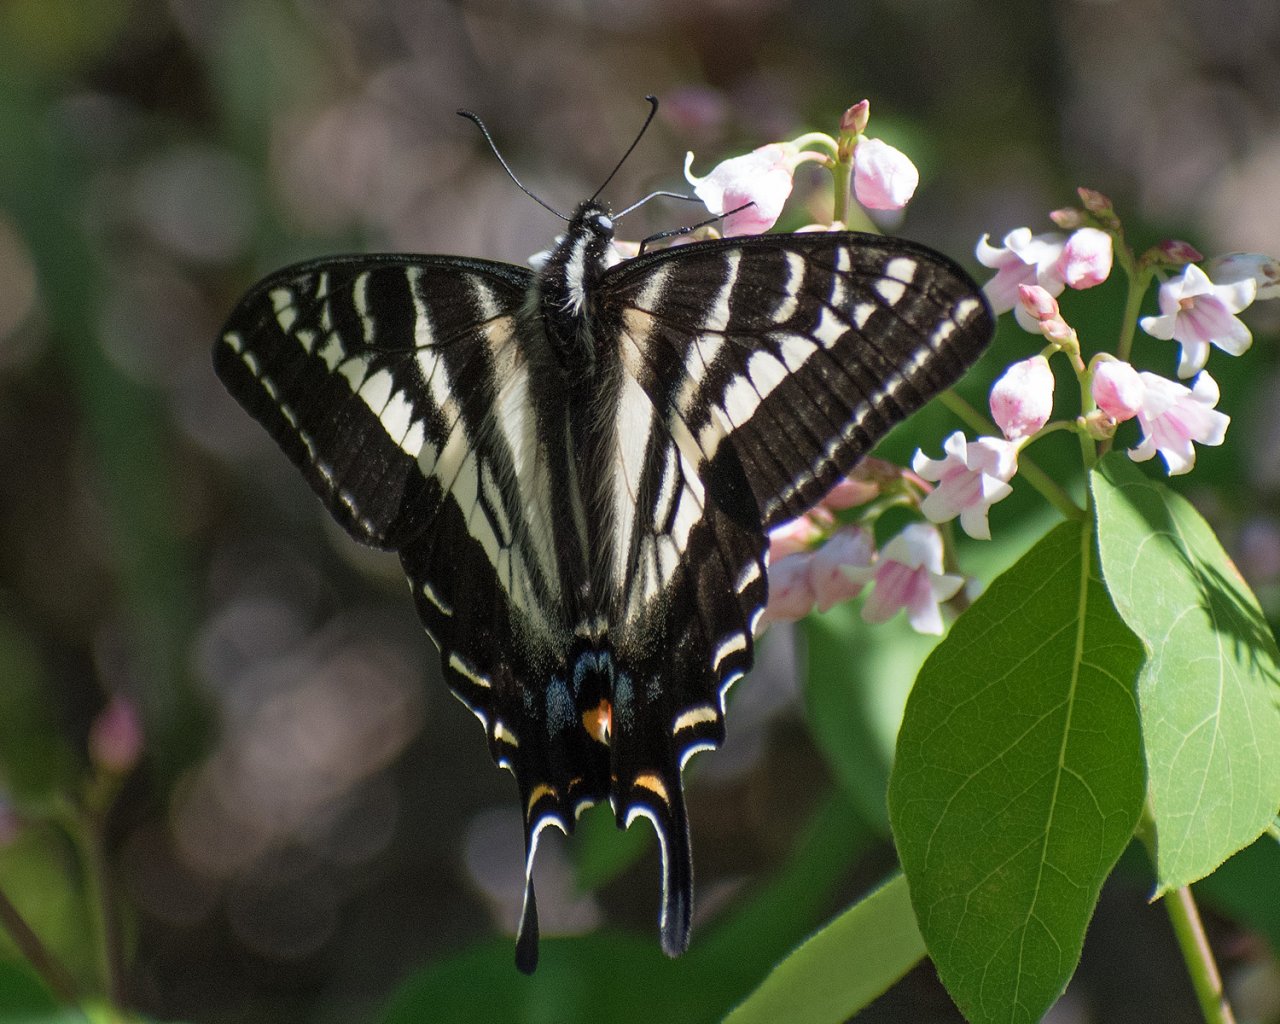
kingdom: Animalia
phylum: Arthropoda
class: Insecta
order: Lepidoptera
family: Papilionidae
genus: Pterourus
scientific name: Pterourus eurymedon
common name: Pale Swallowtail
